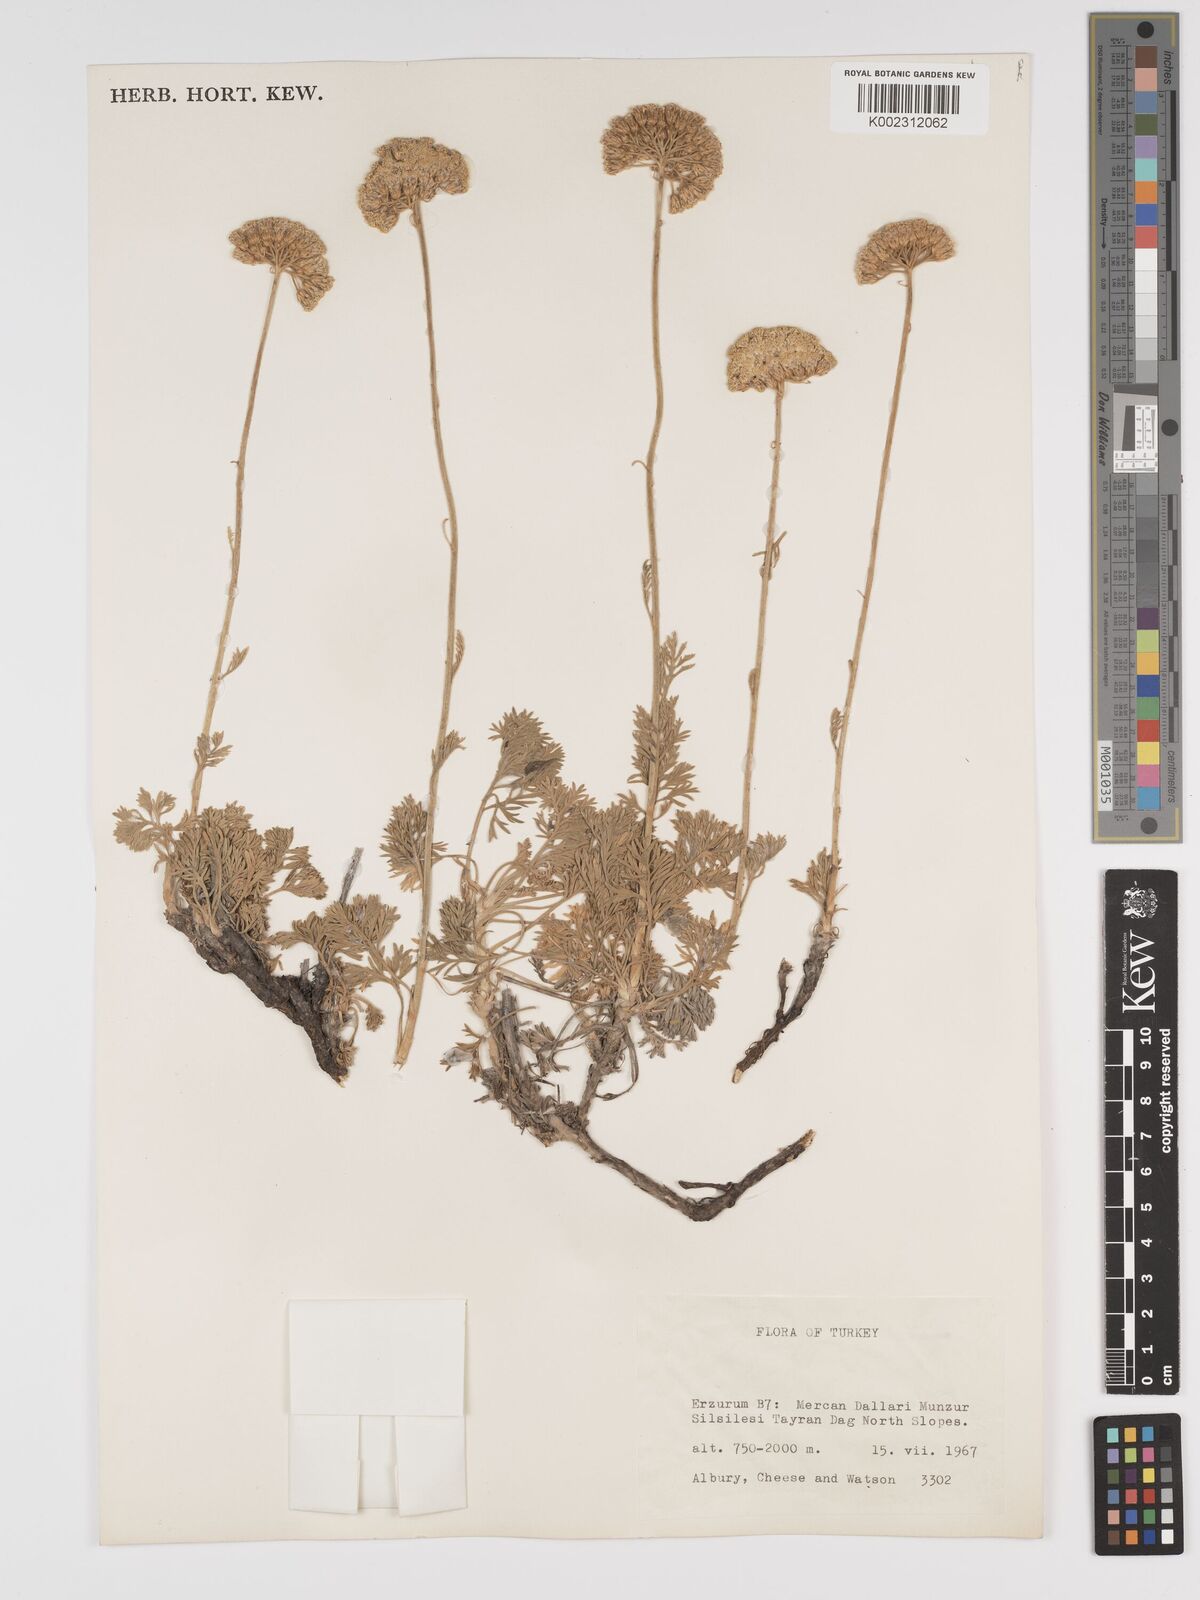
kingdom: Plantae
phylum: Tracheophyta
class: Magnoliopsida
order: Asterales
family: Asteraceae
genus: Tanacetum
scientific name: Tanacetum argenteum
